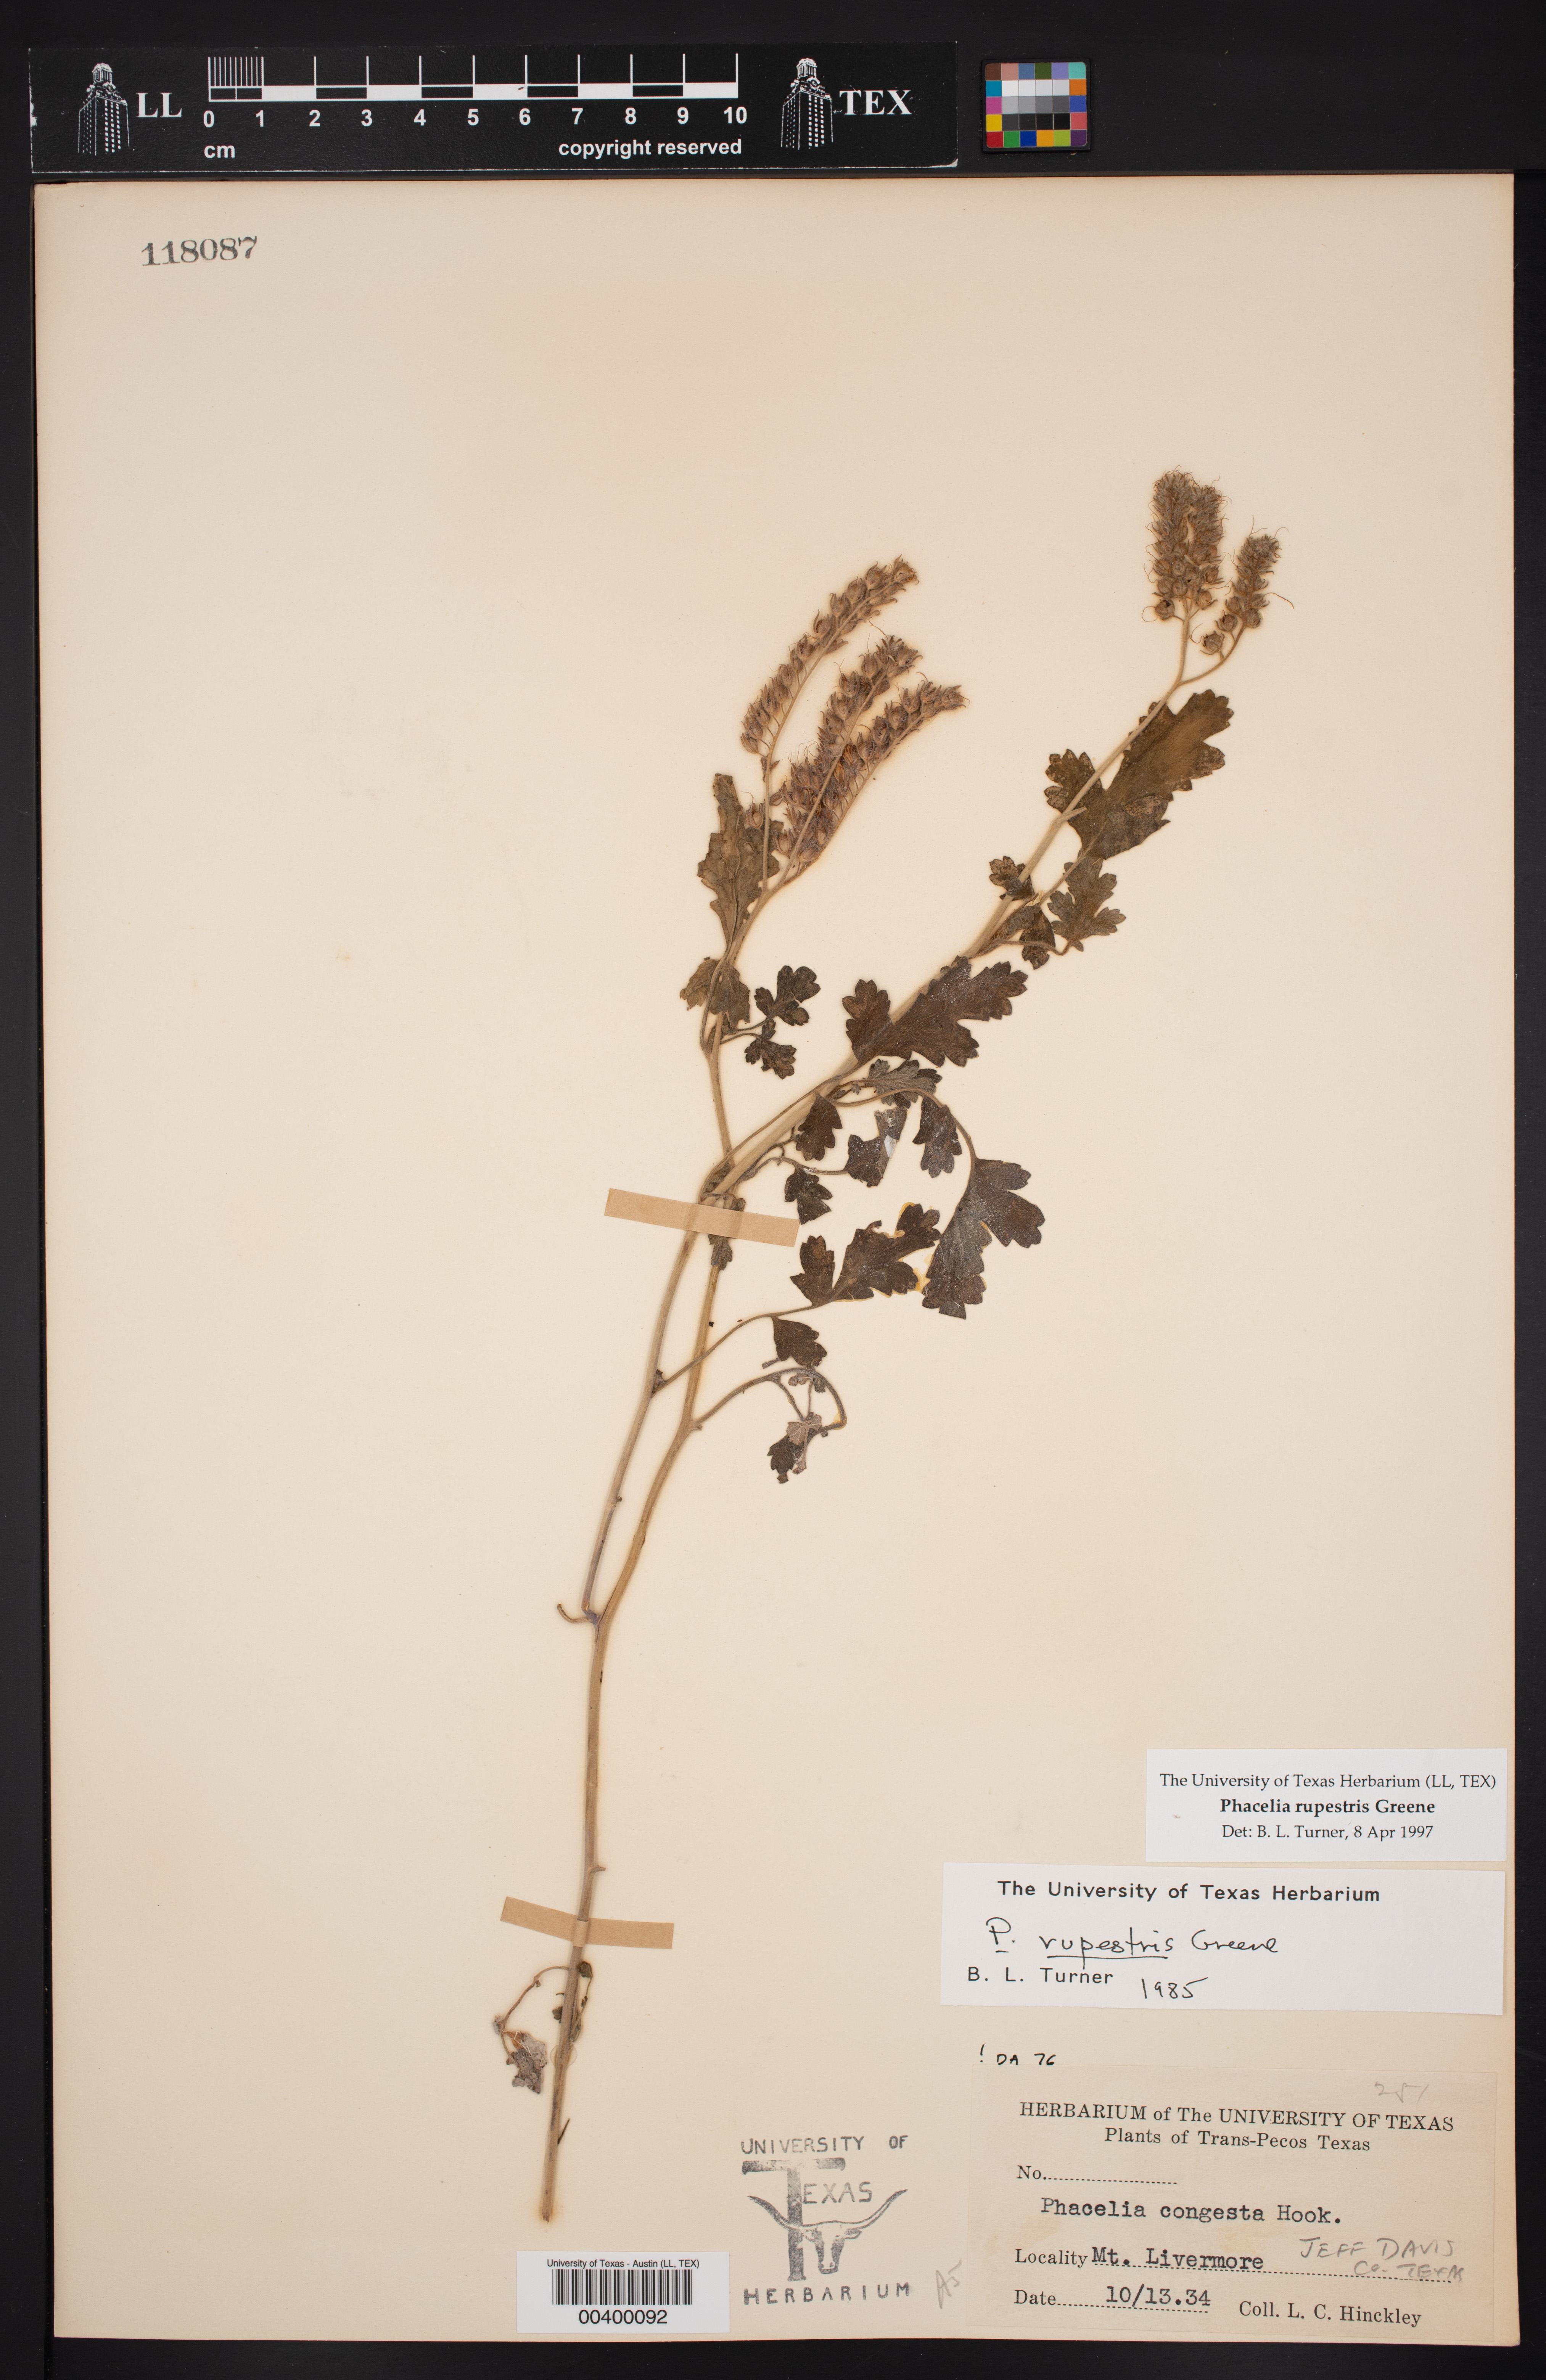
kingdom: Plantae
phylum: Tracheophyta
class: Magnoliopsida
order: Boraginales
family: Hydrophyllaceae
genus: Phacelia
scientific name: Phacelia rupestris
